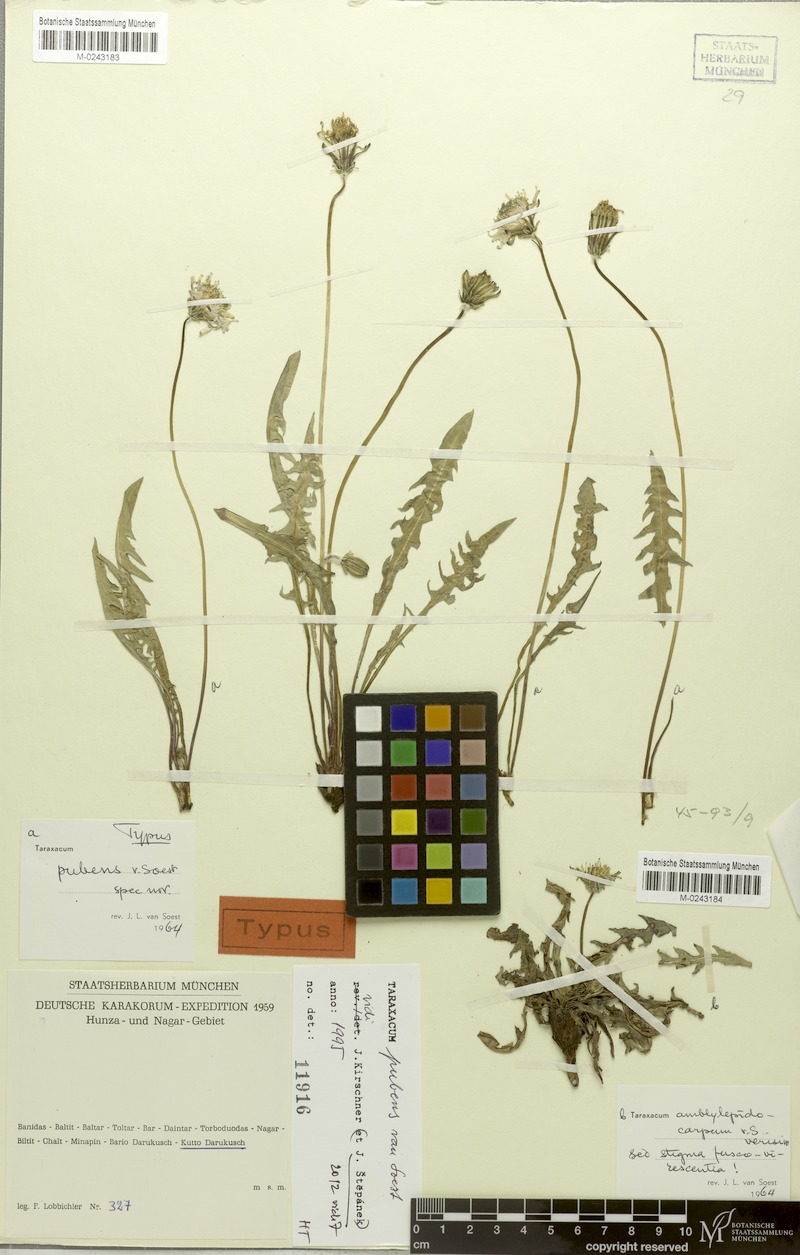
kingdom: Plantae
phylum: Tracheophyta
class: Magnoliopsida
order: Asterales
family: Asteraceae
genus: Taraxacum
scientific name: Taraxacum amblylepidocarpum
